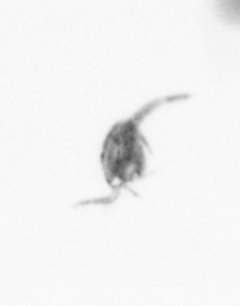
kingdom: Animalia
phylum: Arthropoda
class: Copepoda
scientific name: Copepoda
